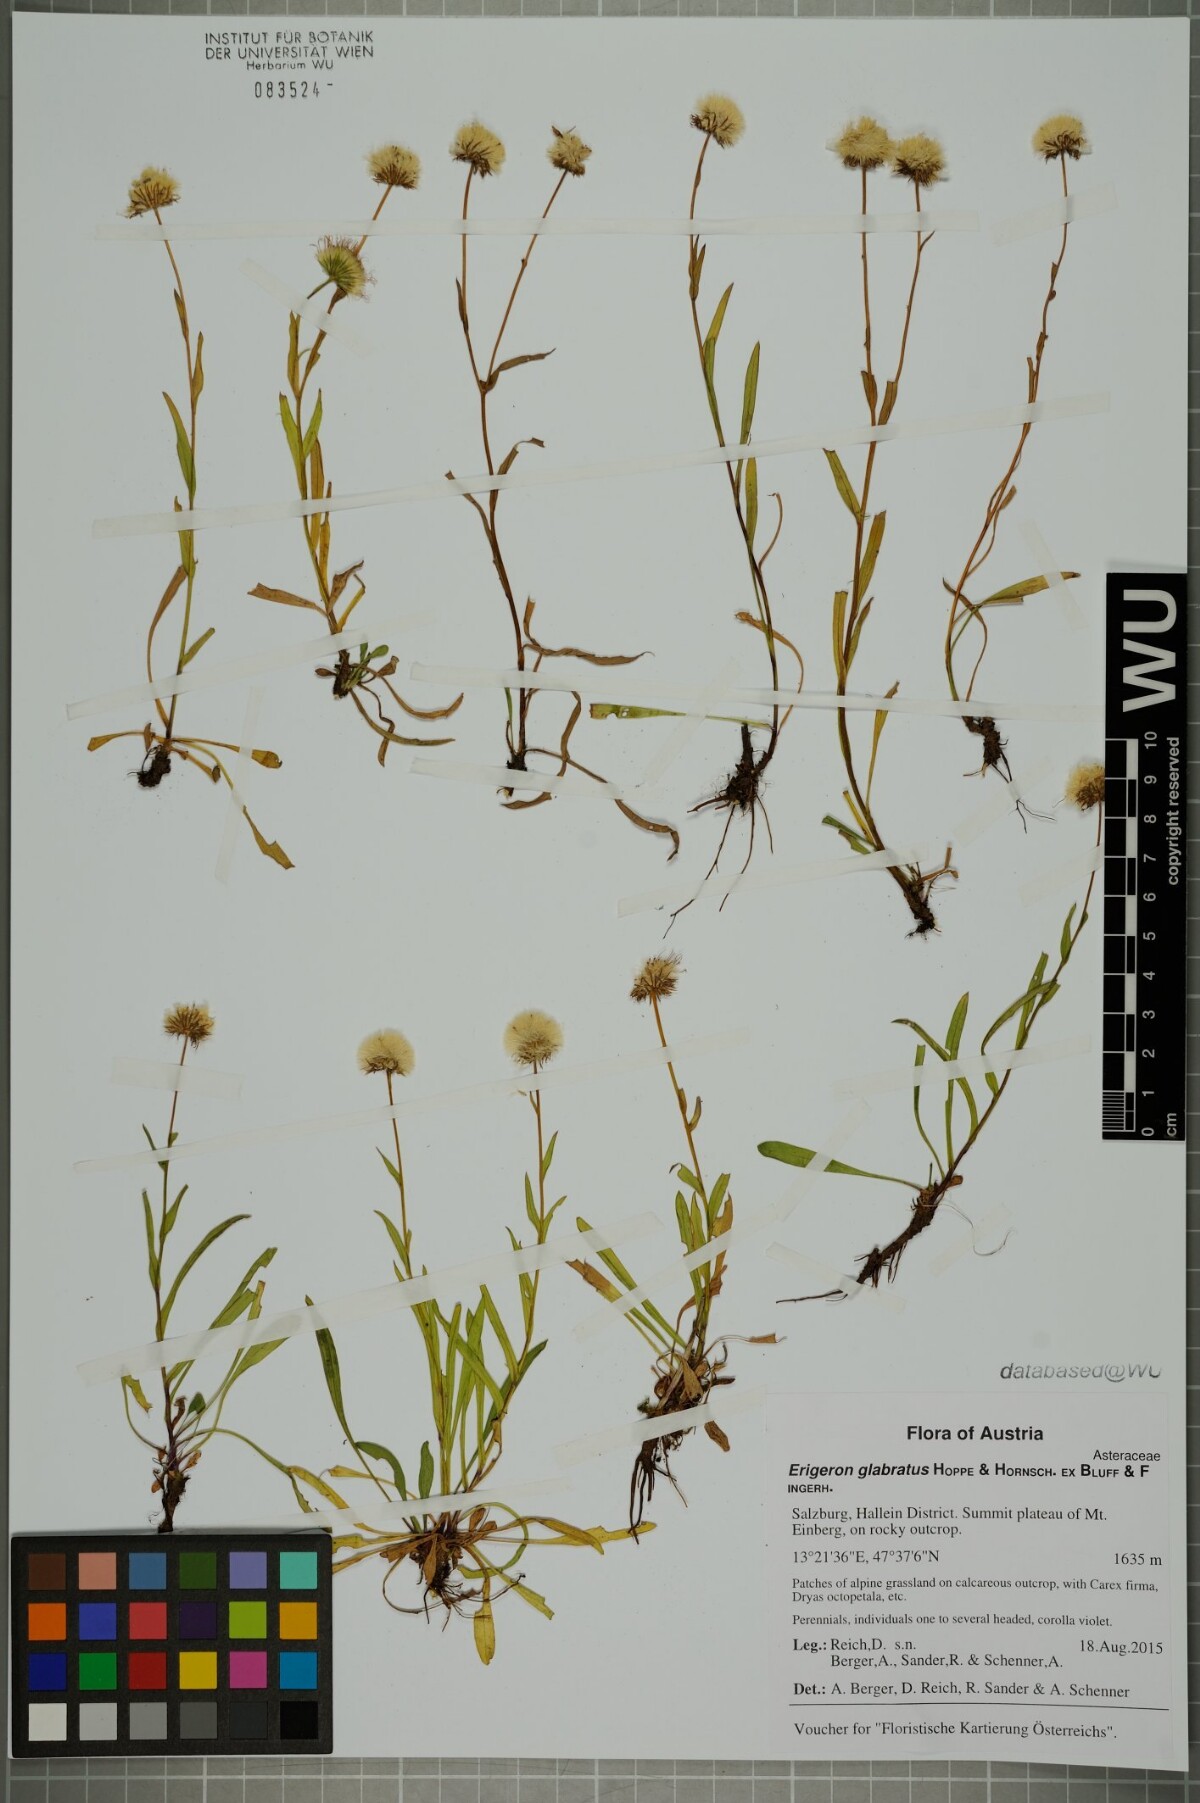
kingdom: Plantae
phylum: Tracheophyta
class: Magnoliopsida
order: Asterales
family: Asteraceae
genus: Erigeron
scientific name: Erigeron glabratus
